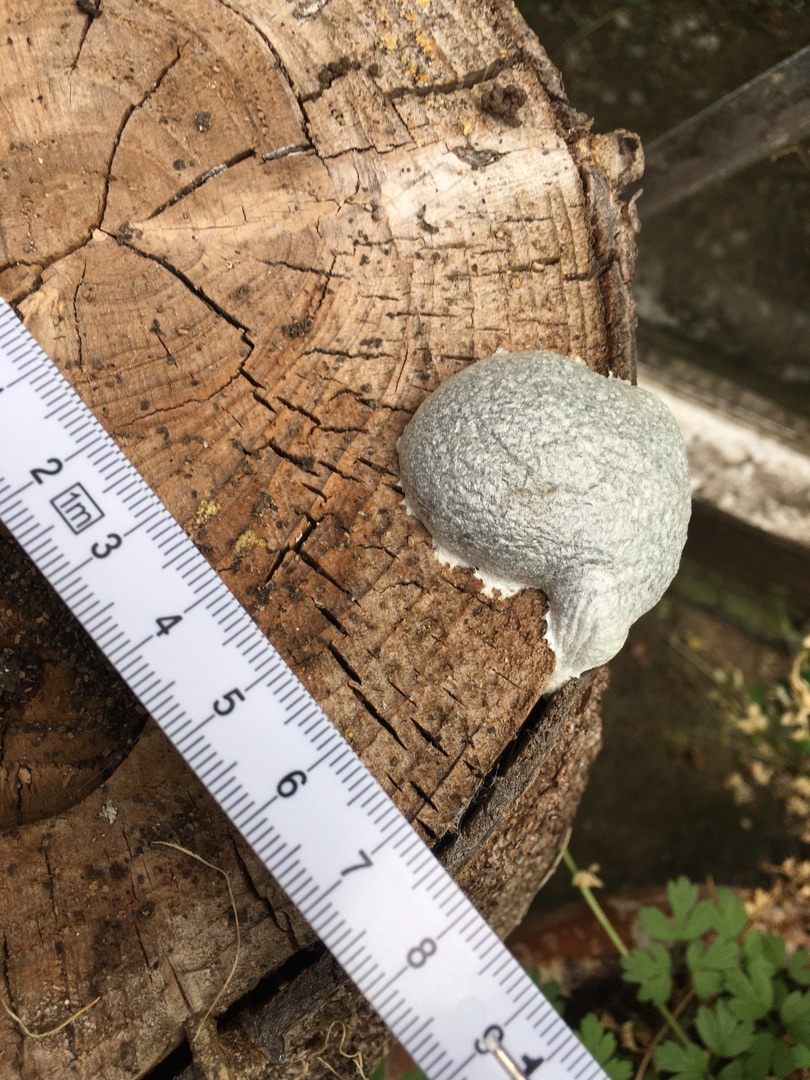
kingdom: Protozoa
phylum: Mycetozoa
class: Myxomycetes
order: Cribrariales
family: Tubiferaceae
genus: Reticularia
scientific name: Reticularia lycoperdon
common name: Skinnende støvpude
